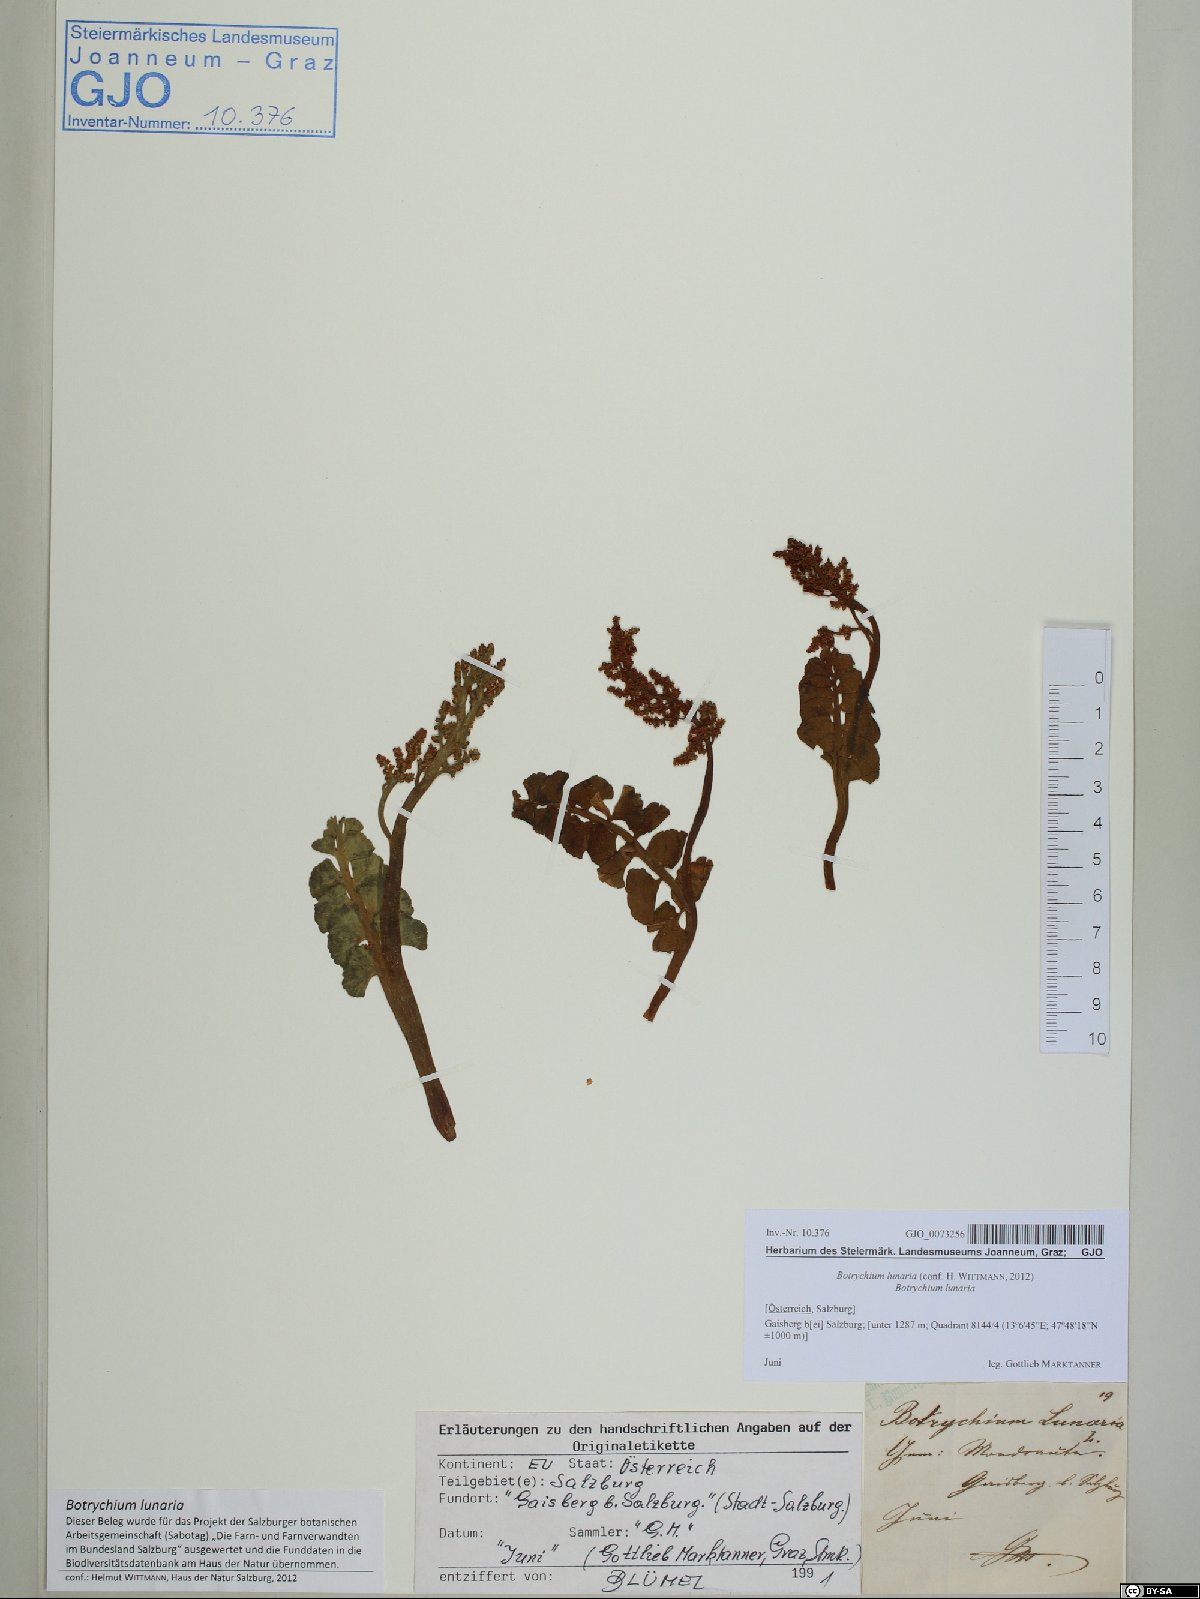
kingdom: Plantae
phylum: Tracheophyta
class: Polypodiopsida
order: Ophioglossales
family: Ophioglossaceae
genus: Botrychium
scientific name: Botrychium lunaria
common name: Moonwort
